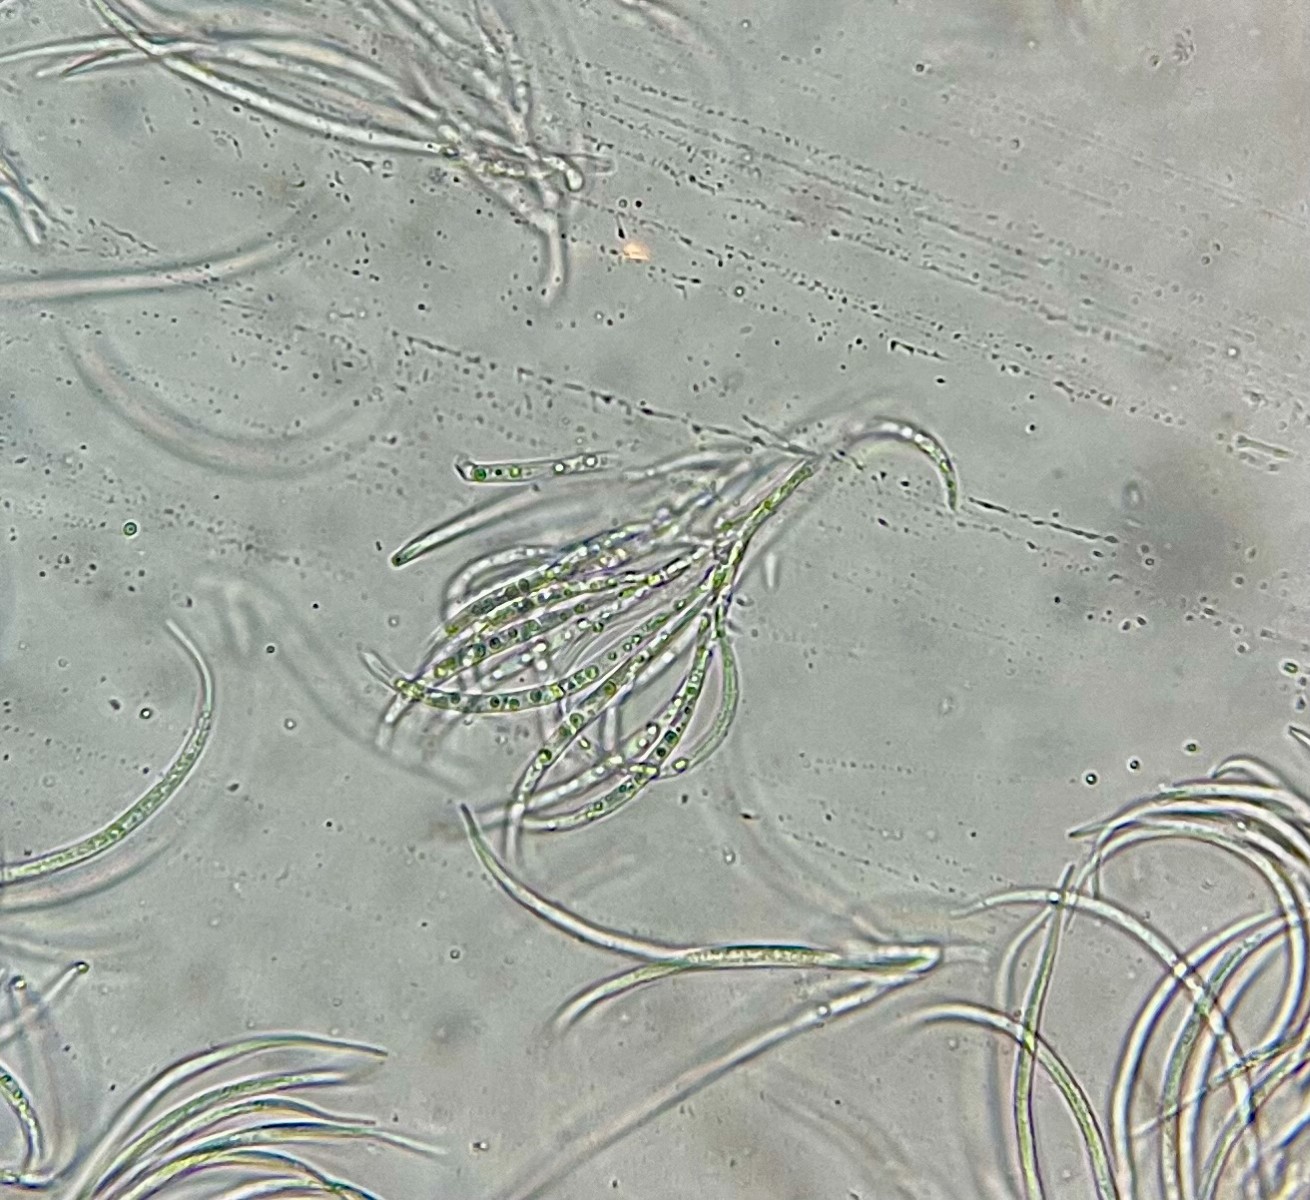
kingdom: Fungi
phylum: Ascomycota
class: Leotiomycetes
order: Helotiales
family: Godroniaceae
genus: Godronia
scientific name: Godronia muehlenbeckii
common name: tagrør-urneskive
